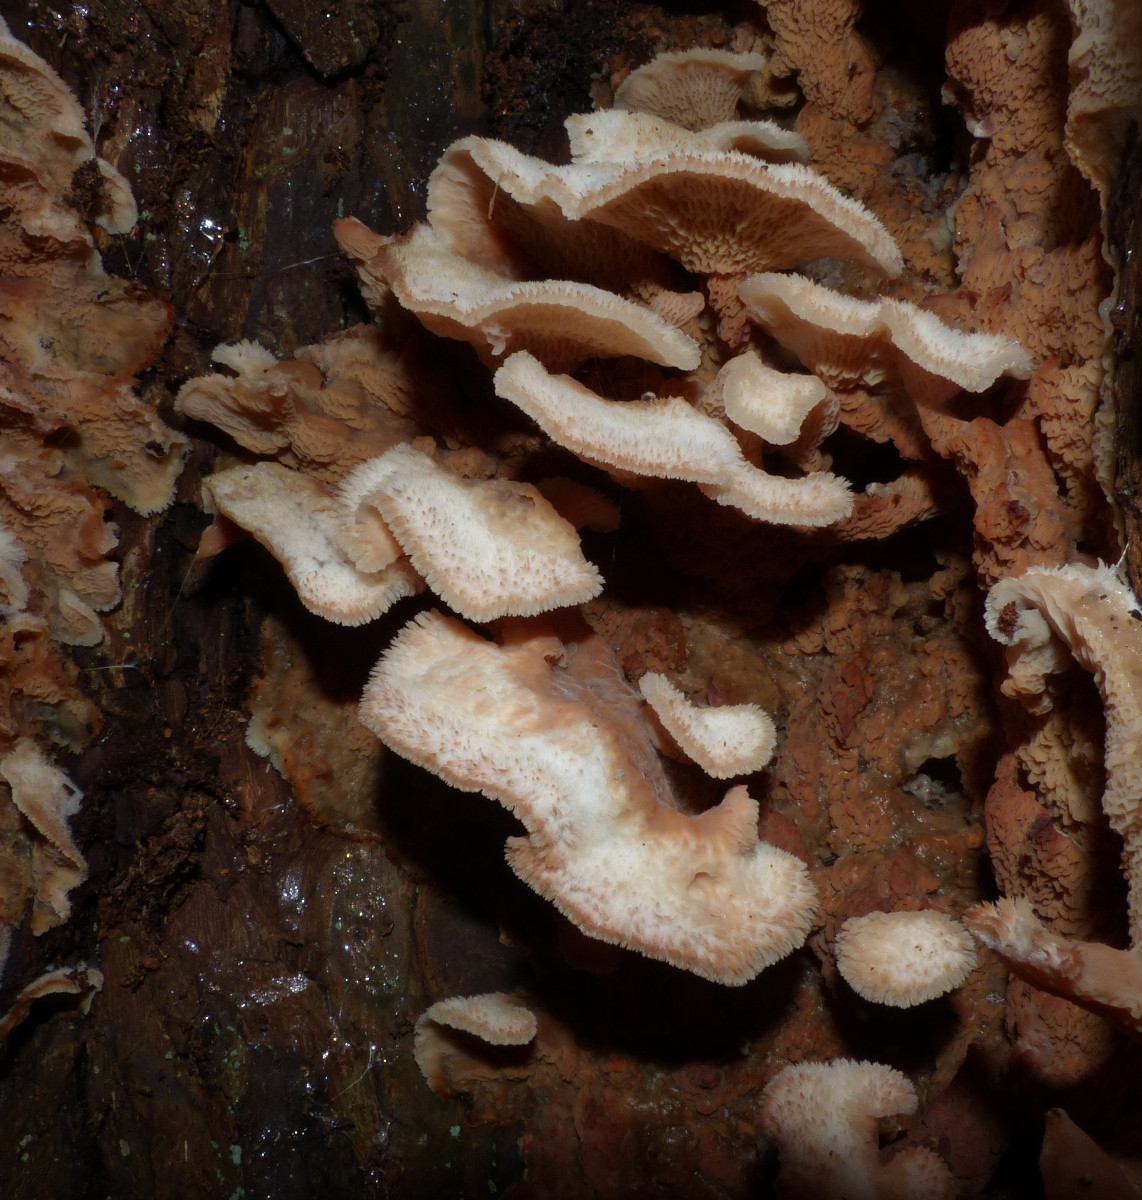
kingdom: Fungi
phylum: Basidiomycota
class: Agaricomycetes
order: Polyporales
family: Meruliaceae
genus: Phlebia
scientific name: Phlebia tremellosa
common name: bævrende åresvamp
